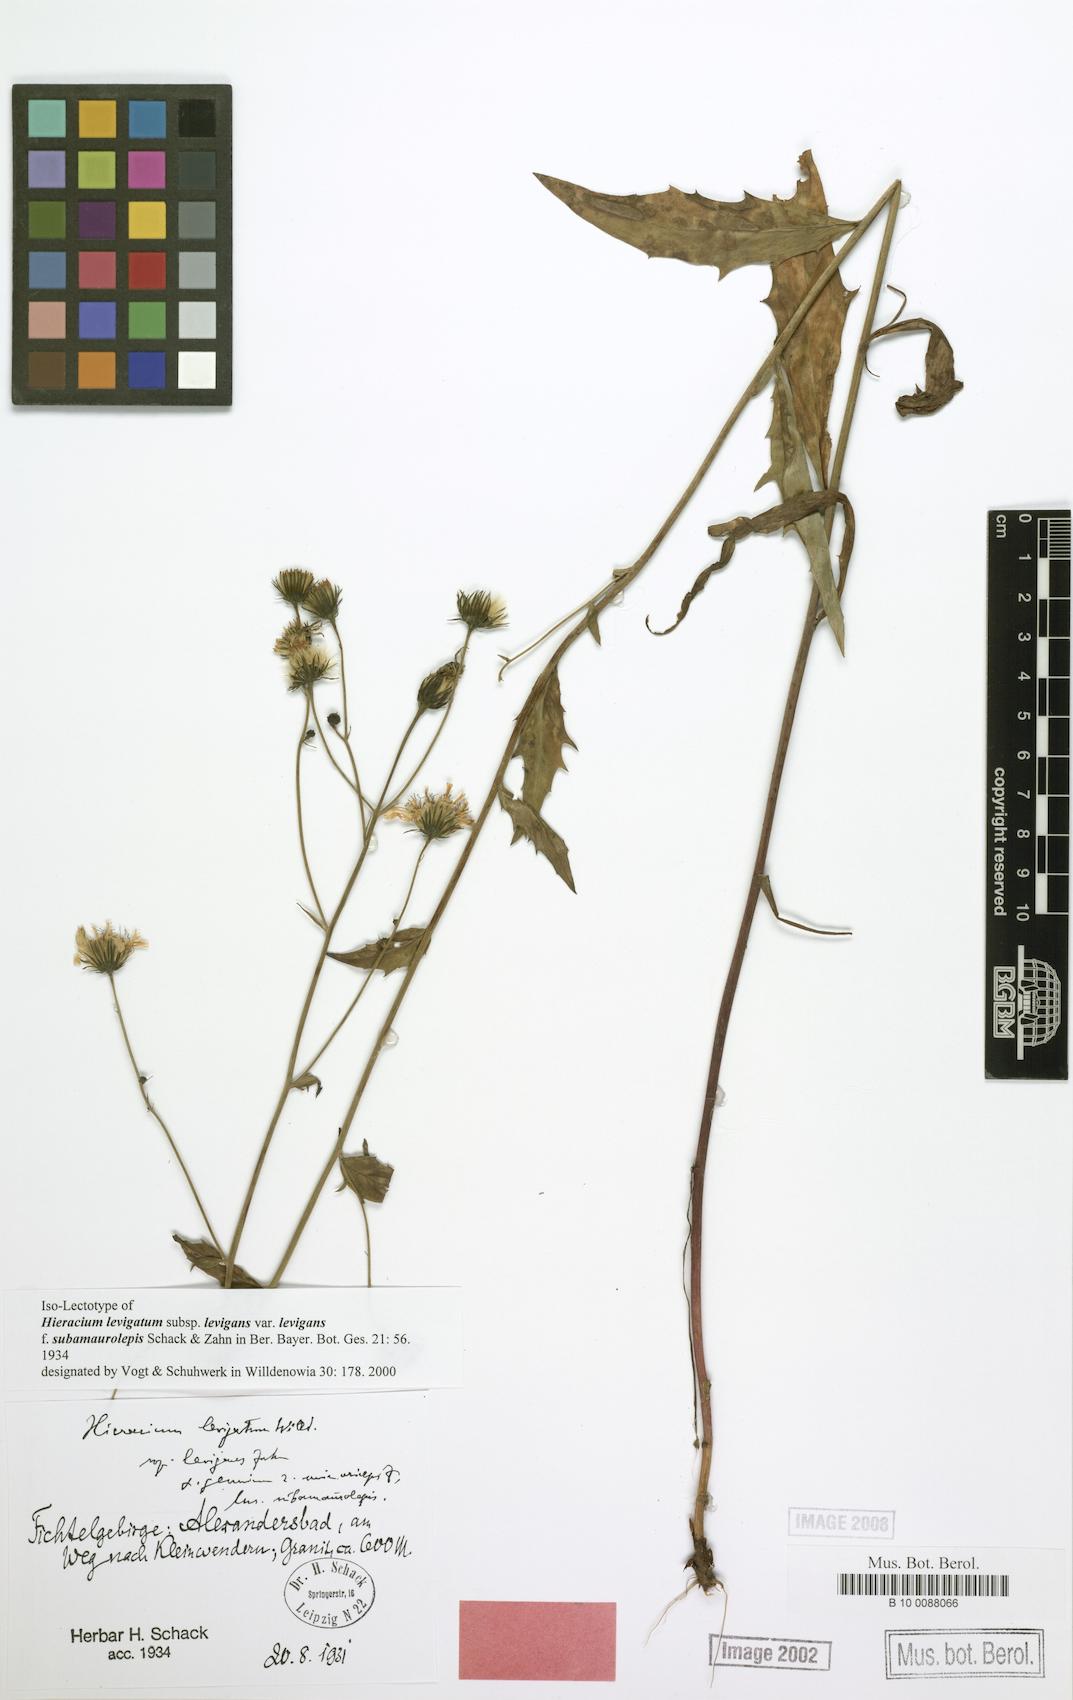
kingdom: Plantae
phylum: Tracheophyta
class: Magnoliopsida
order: Asterales
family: Asteraceae
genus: Hieracium
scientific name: Hieracium laevigatum
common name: Smooth hawkweed
